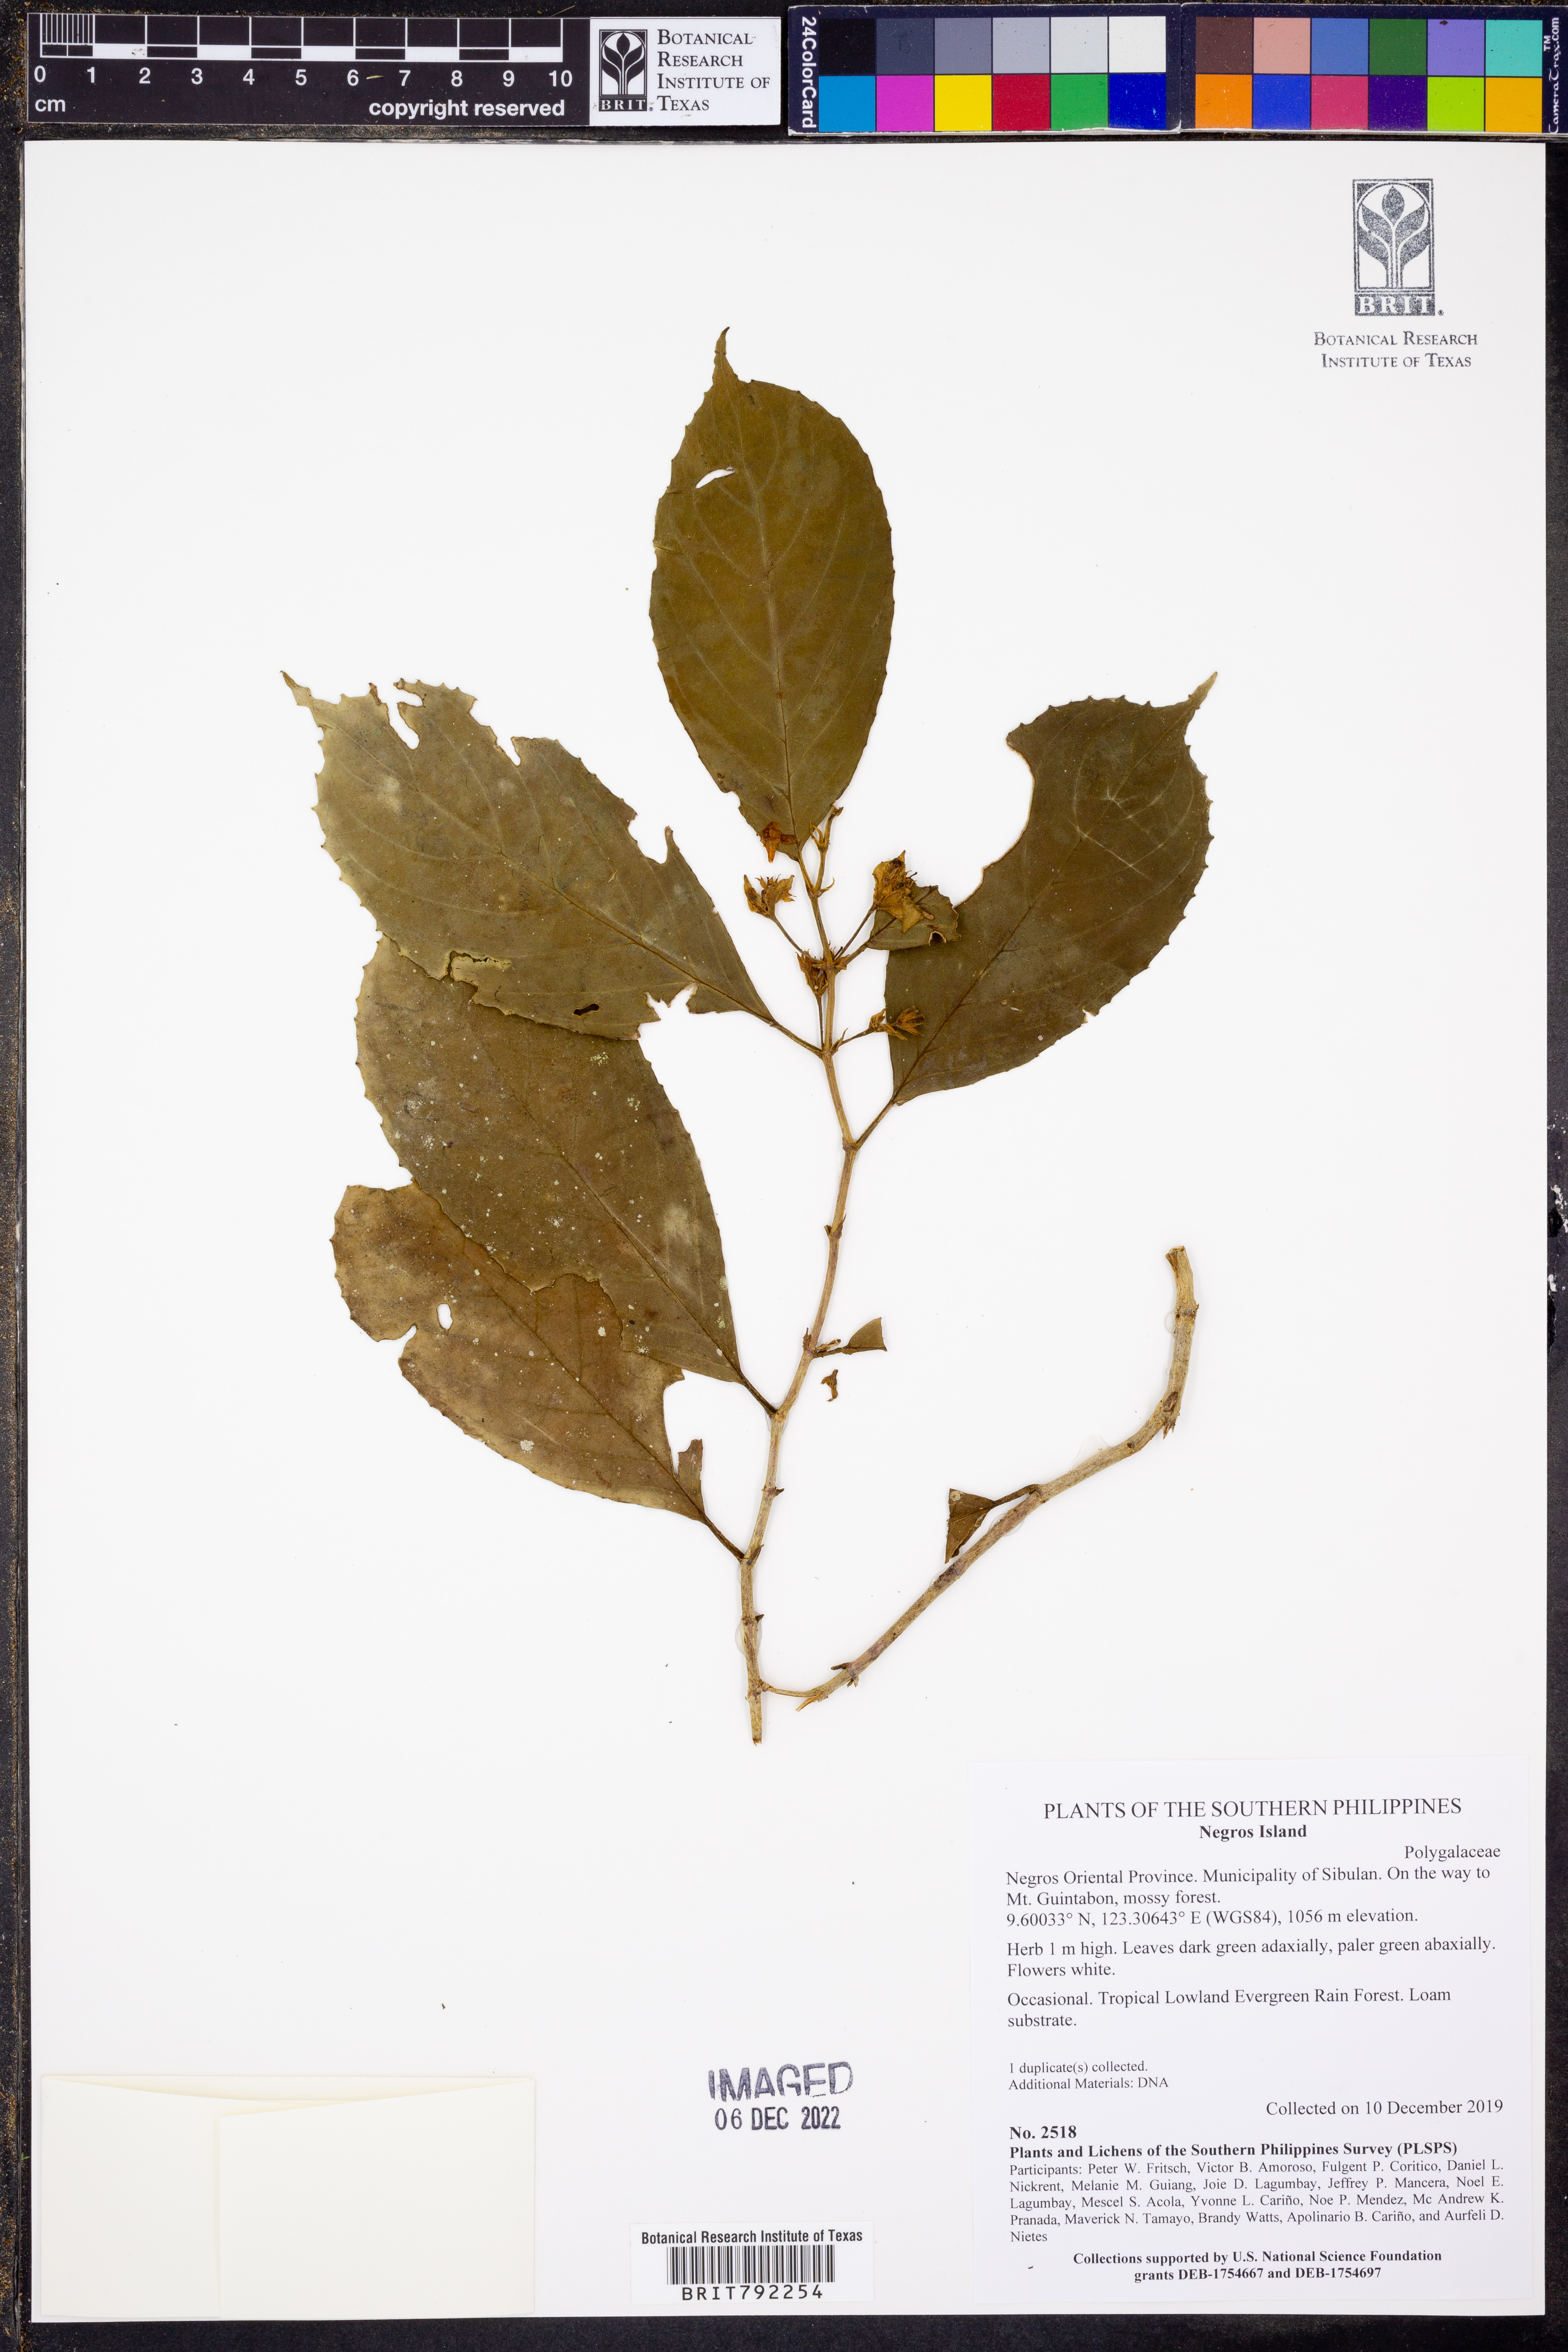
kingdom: Plantae
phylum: Tracheophyta
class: Magnoliopsida
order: Fabales
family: Polygalaceae
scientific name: Polygalaceae
